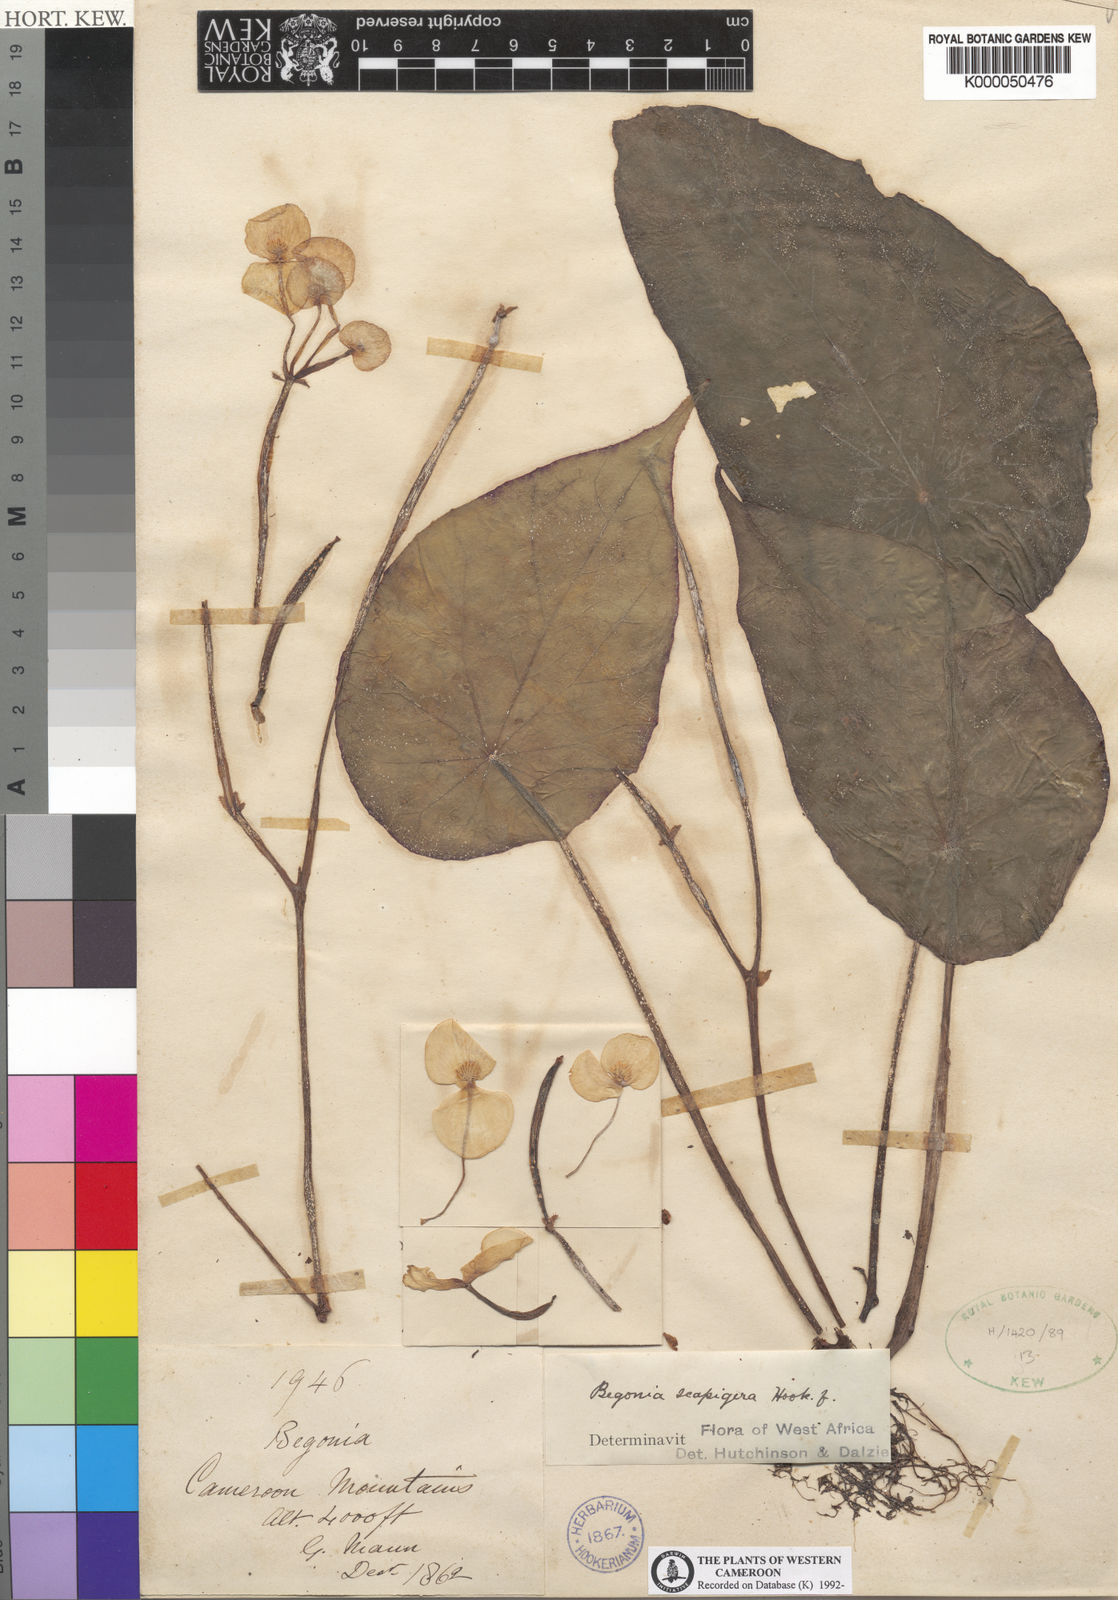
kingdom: Plantae
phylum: Tracheophyta
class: Magnoliopsida
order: Cucurbitales
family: Begoniaceae
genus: Begonia
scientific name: Begonia scapigera
